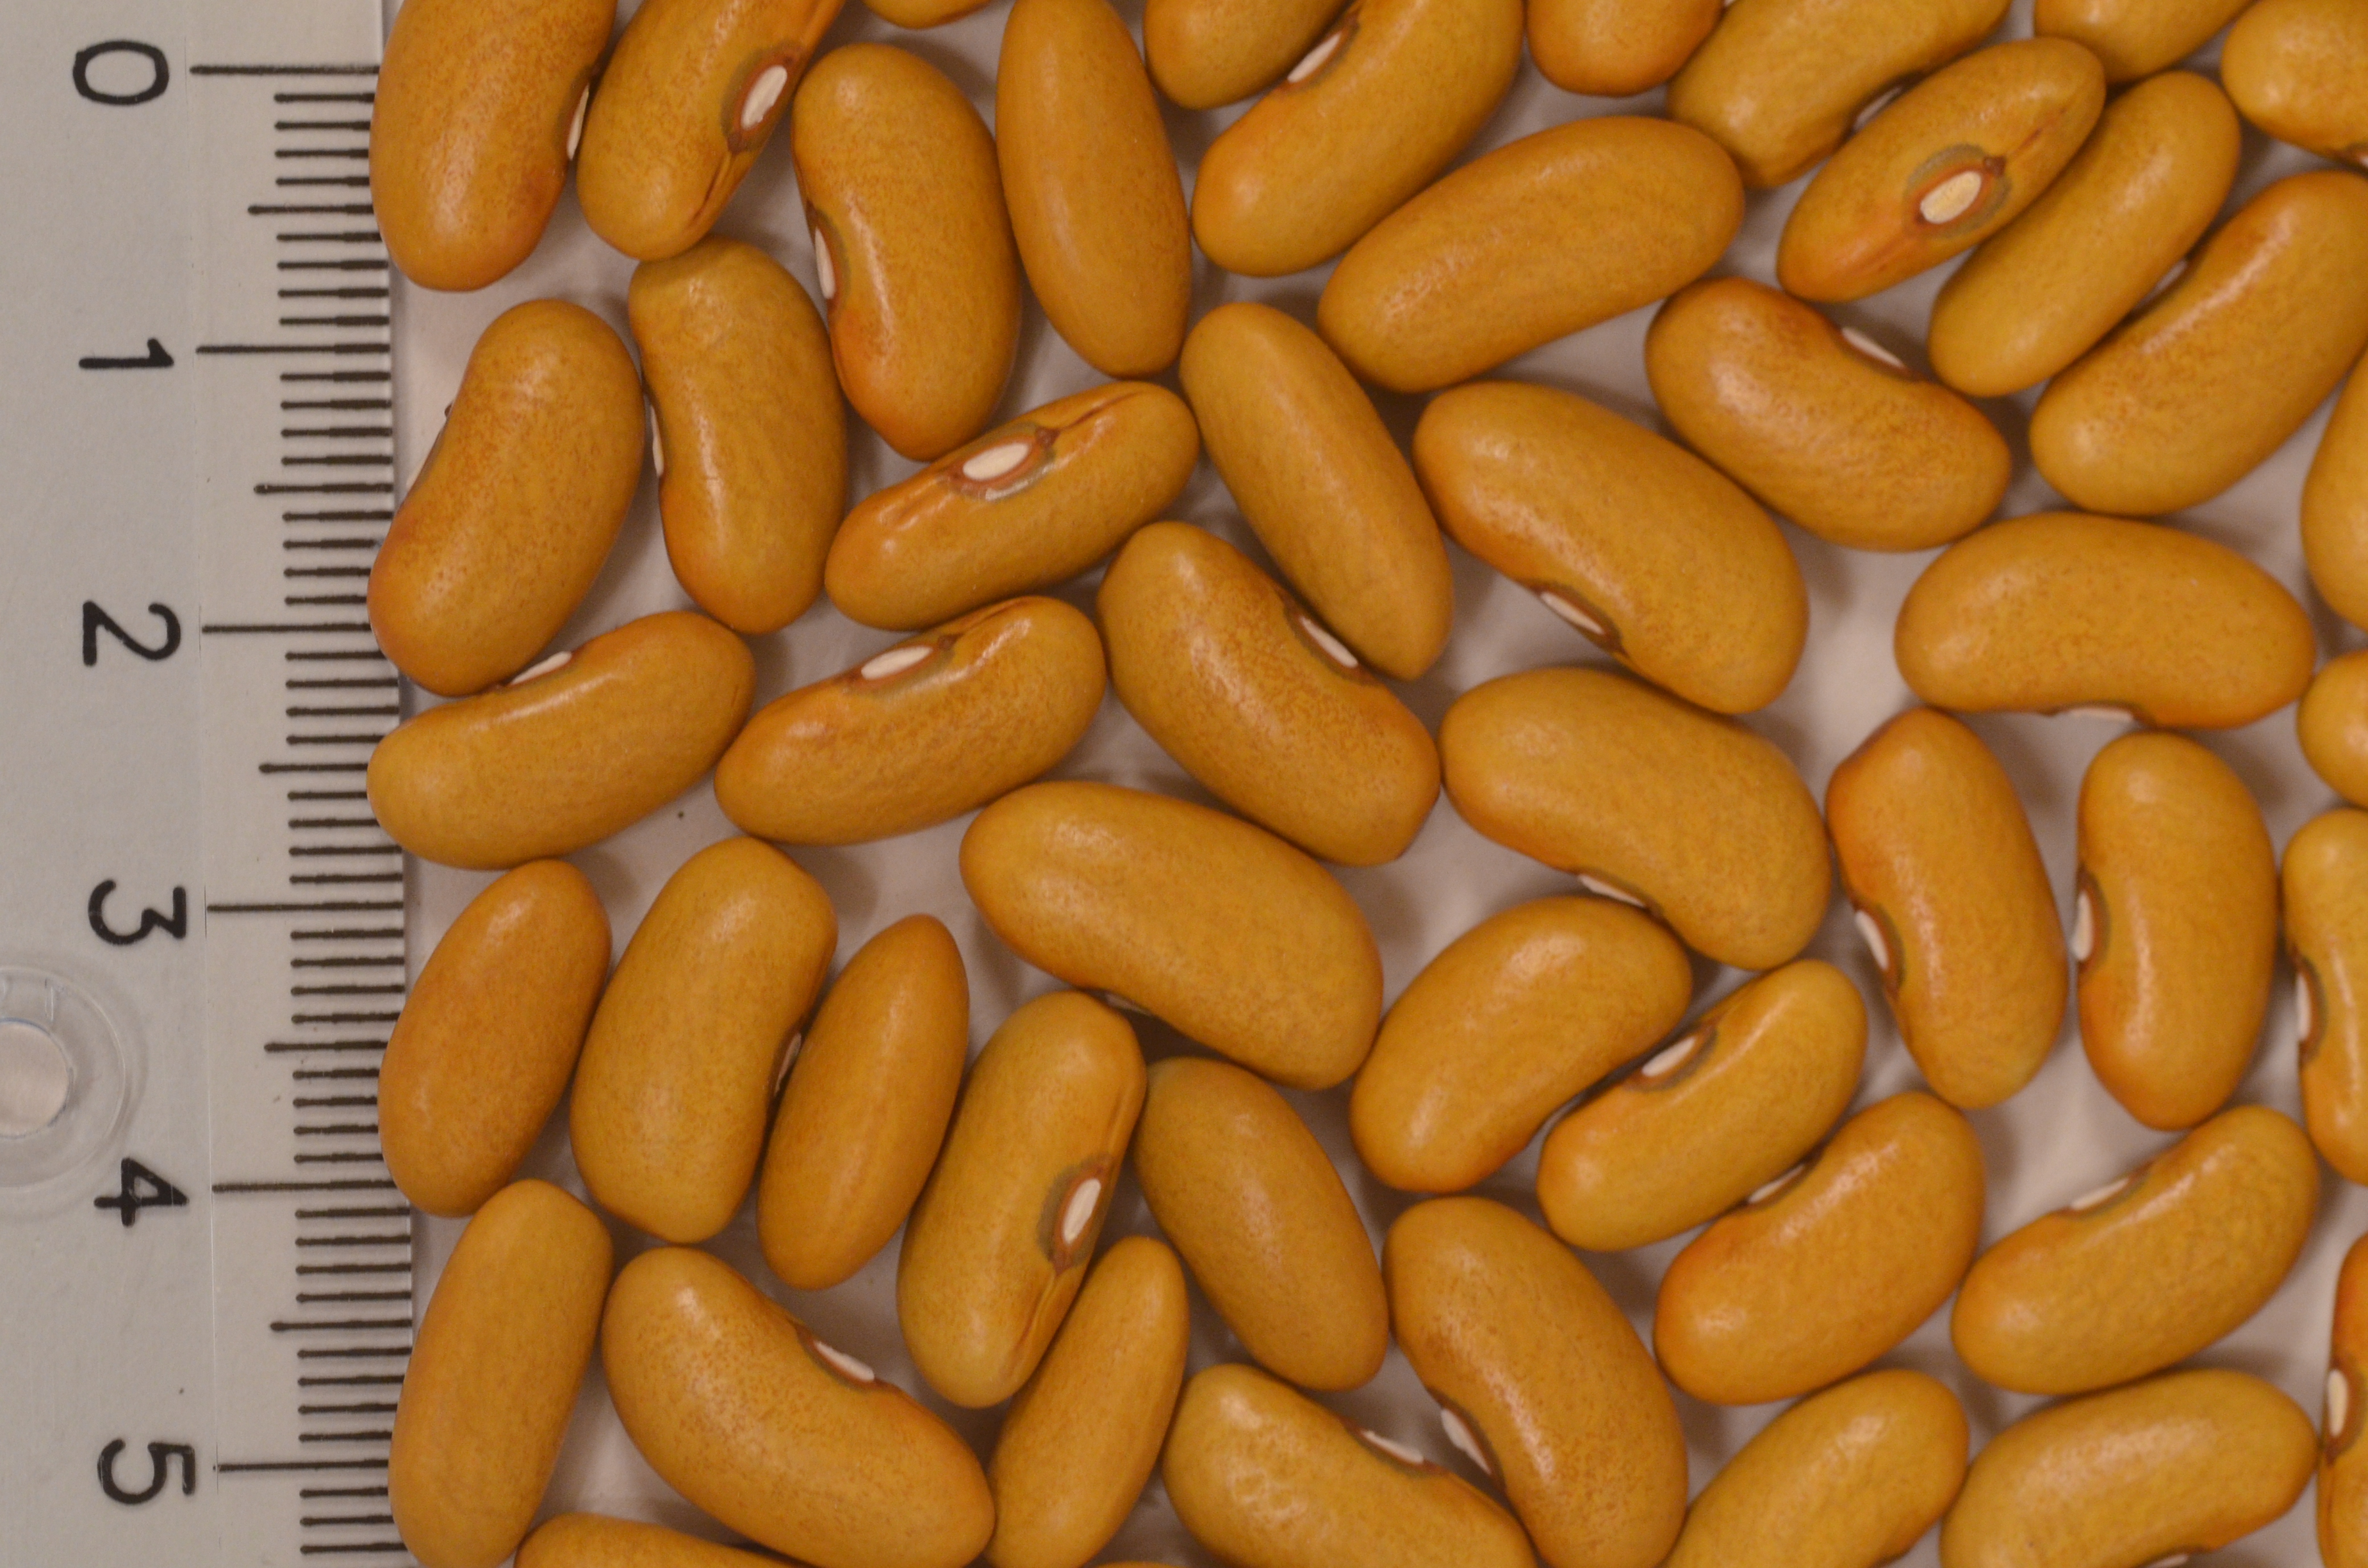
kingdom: Plantae
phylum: Tracheophyta
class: Magnoliopsida
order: Fabales
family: Fabaceae
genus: Phaseolus
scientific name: Phaseolus vulgaris
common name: Bean
